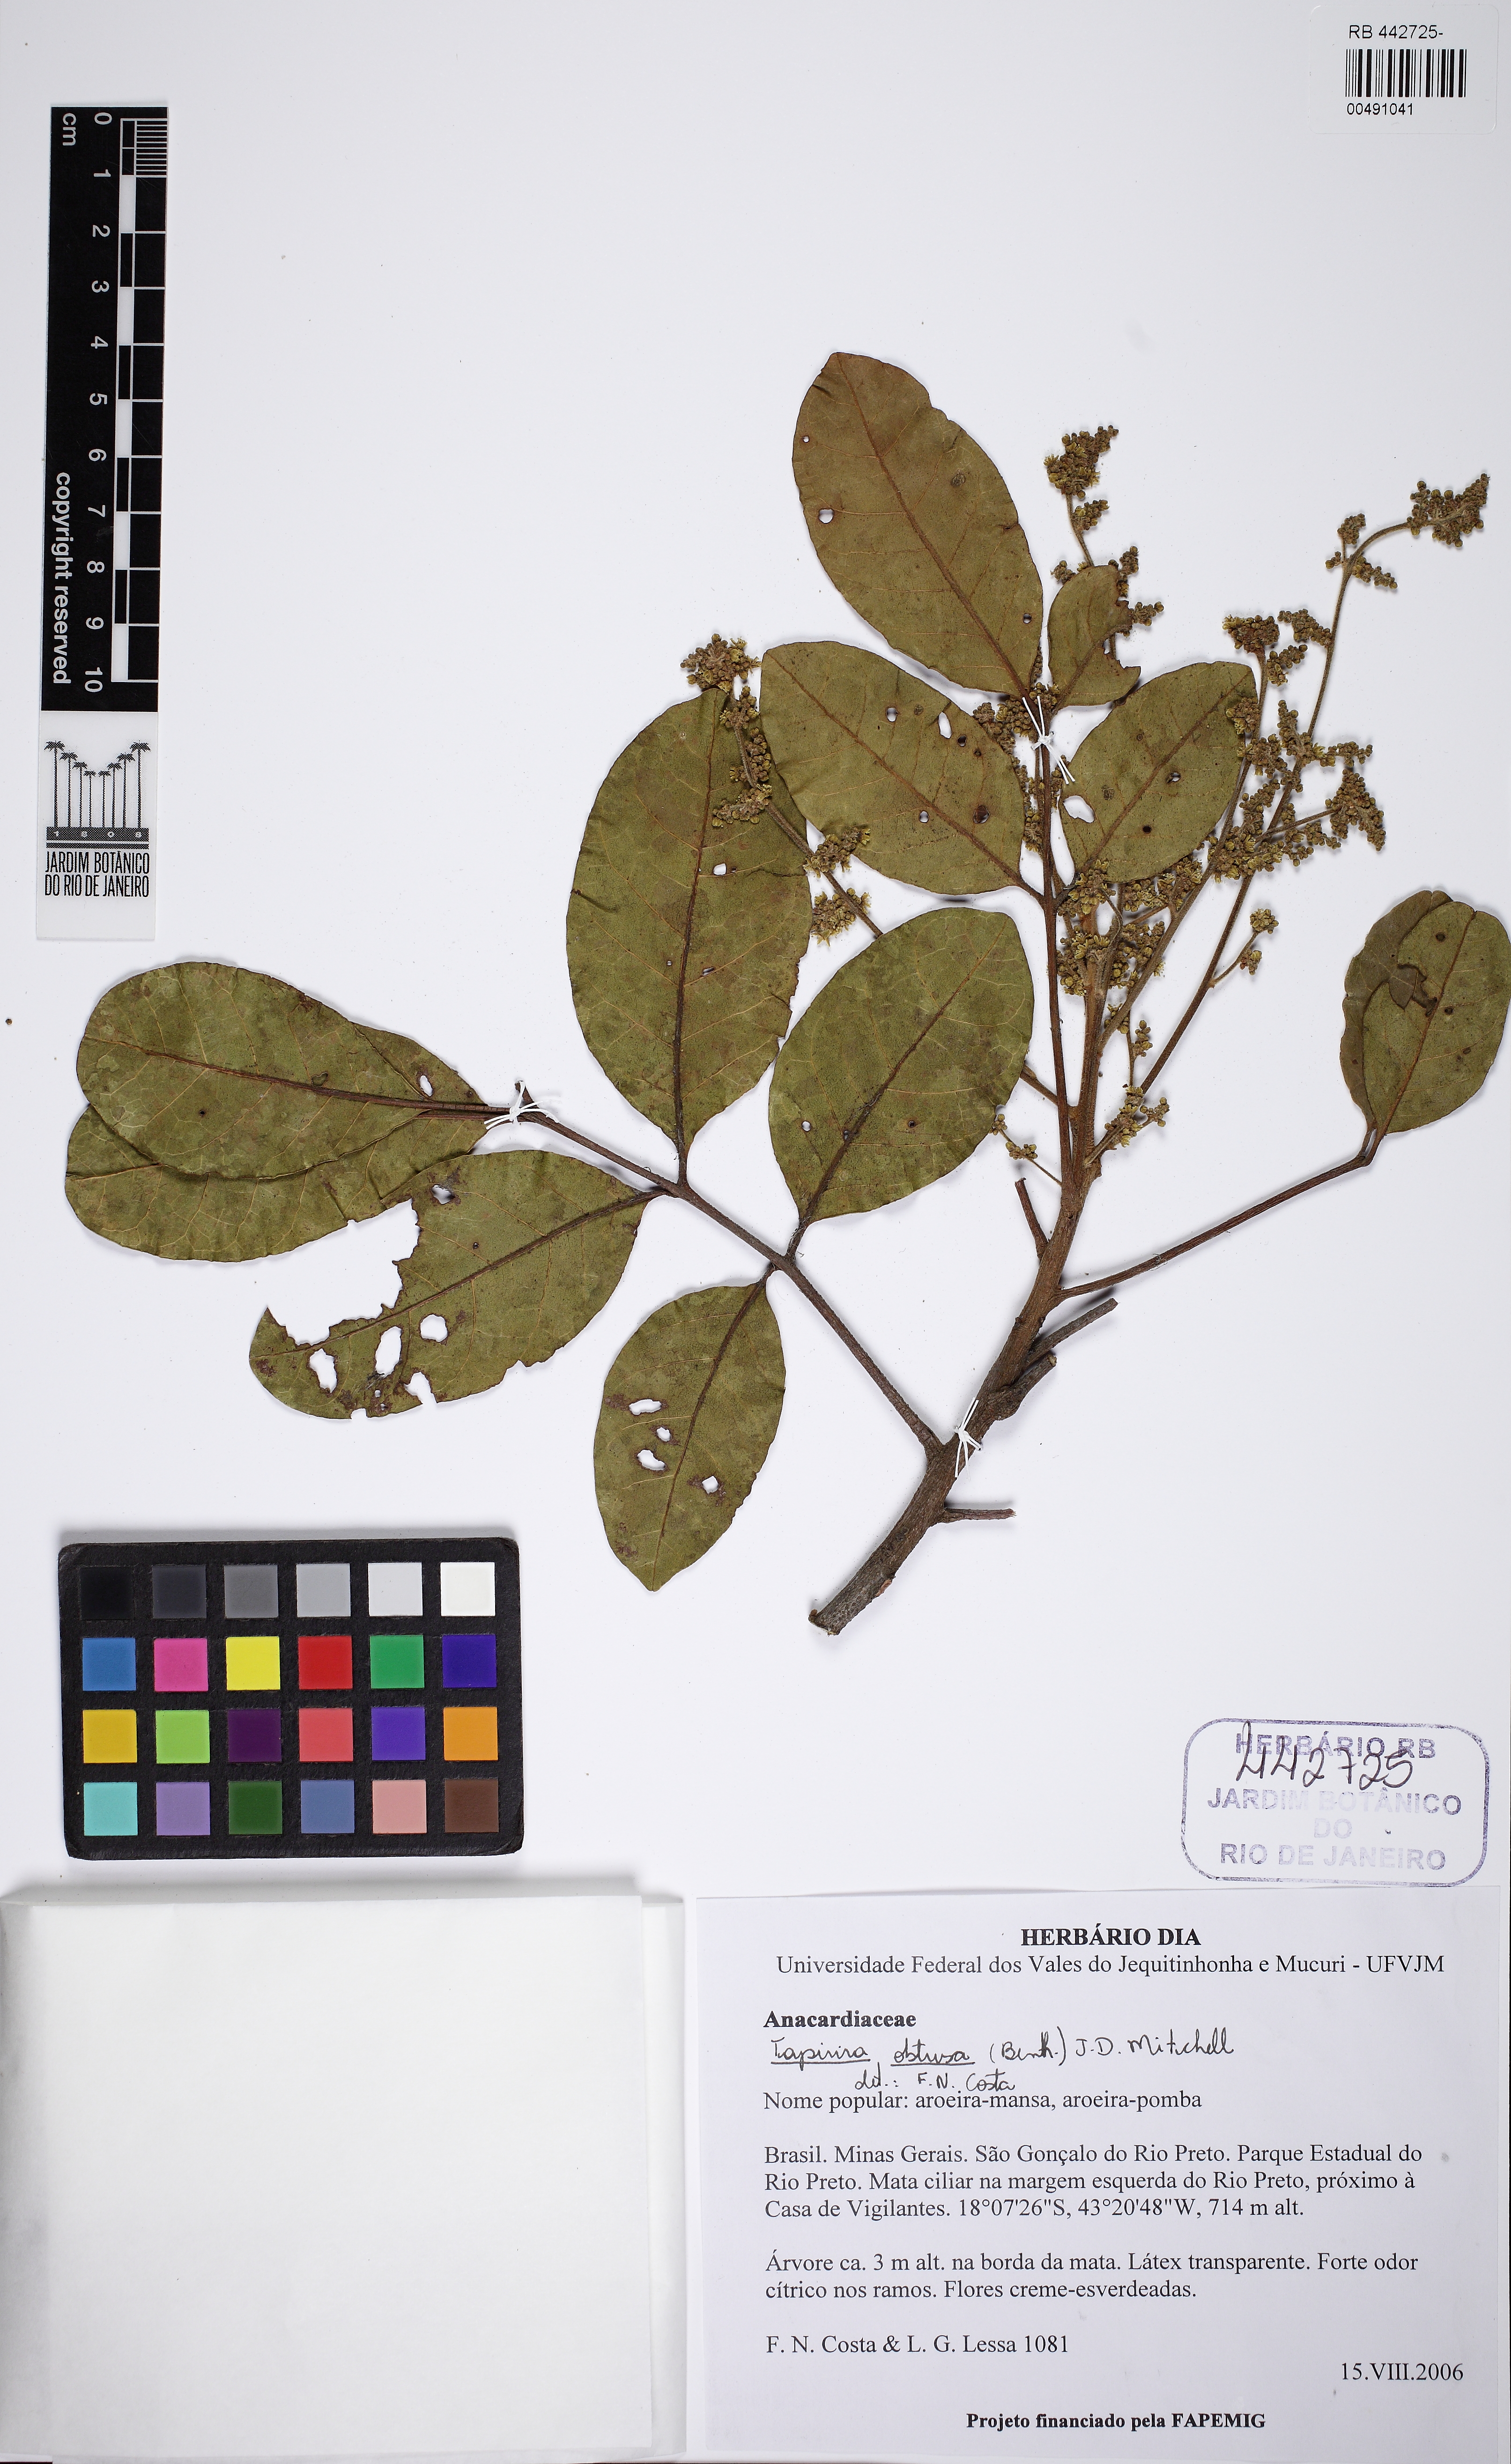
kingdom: Plantae
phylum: Tracheophyta
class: Magnoliopsida
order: Sapindales
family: Anacardiaceae
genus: Tapirira
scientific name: Tapirira obtusa
